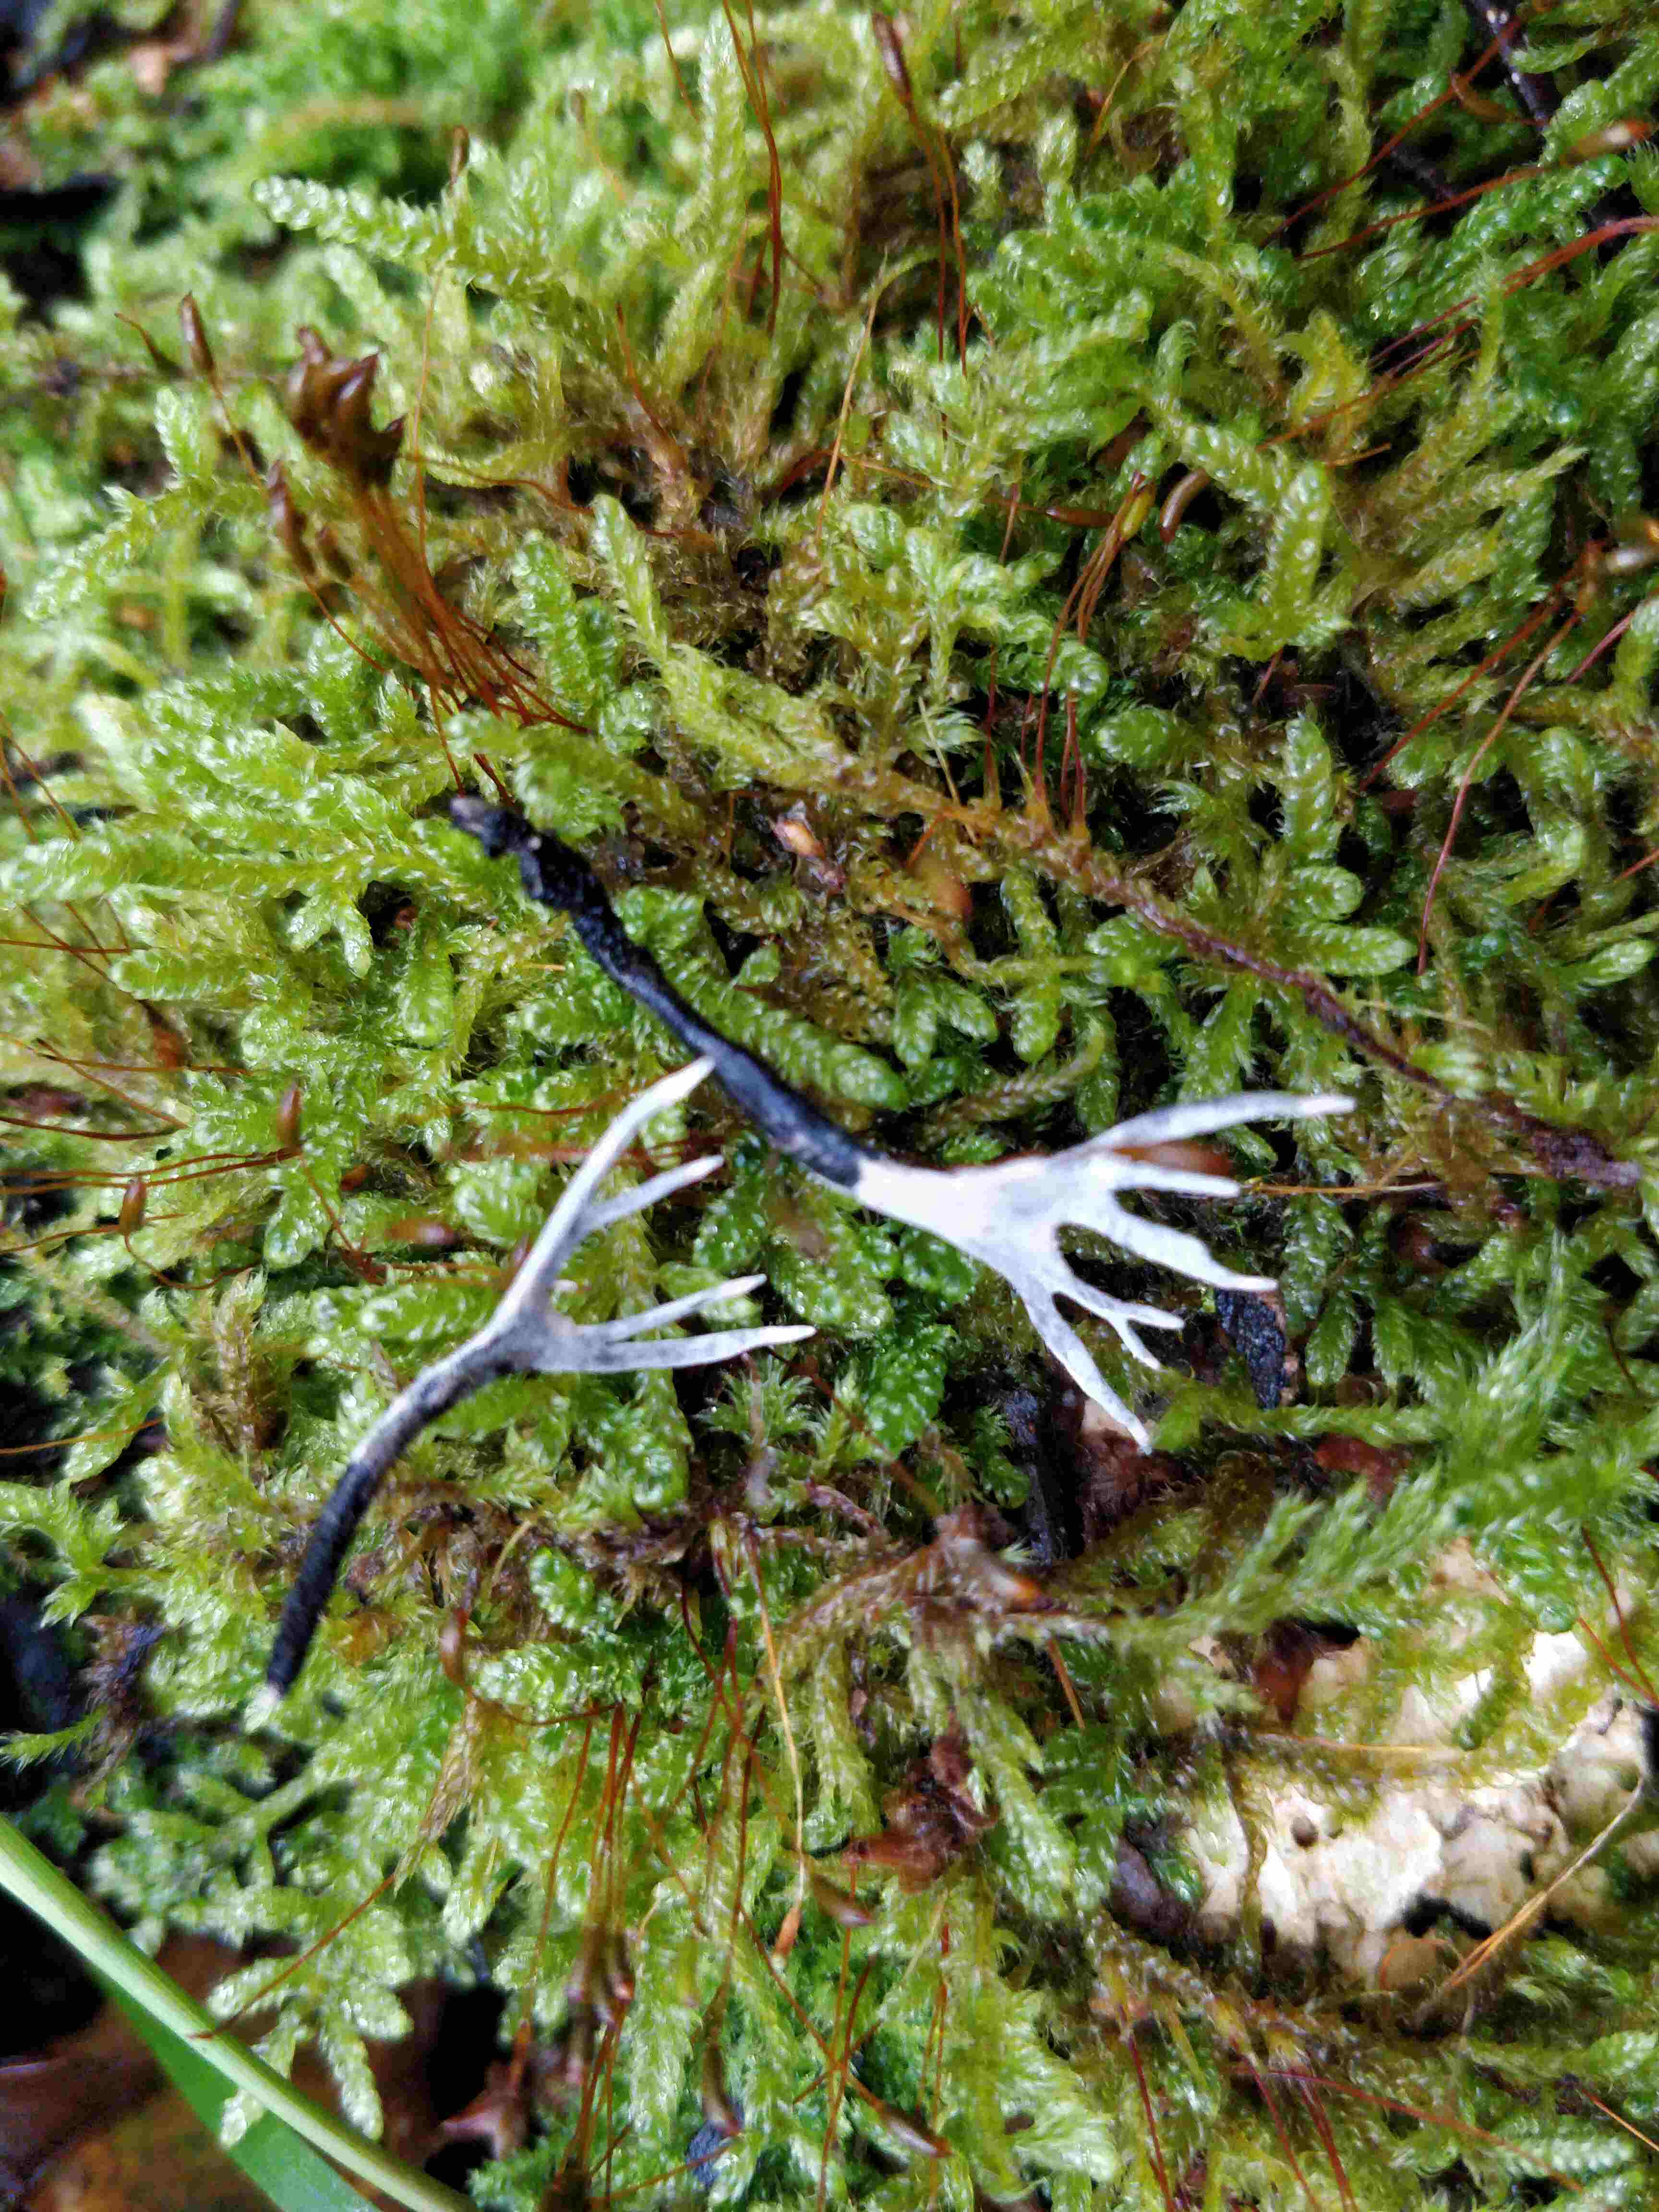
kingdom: Fungi
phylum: Ascomycota
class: Sordariomycetes
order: Xylariales
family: Xylariaceae
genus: Xylaria
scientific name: Xylaria hypoxylon
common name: grenet stødsvamp
